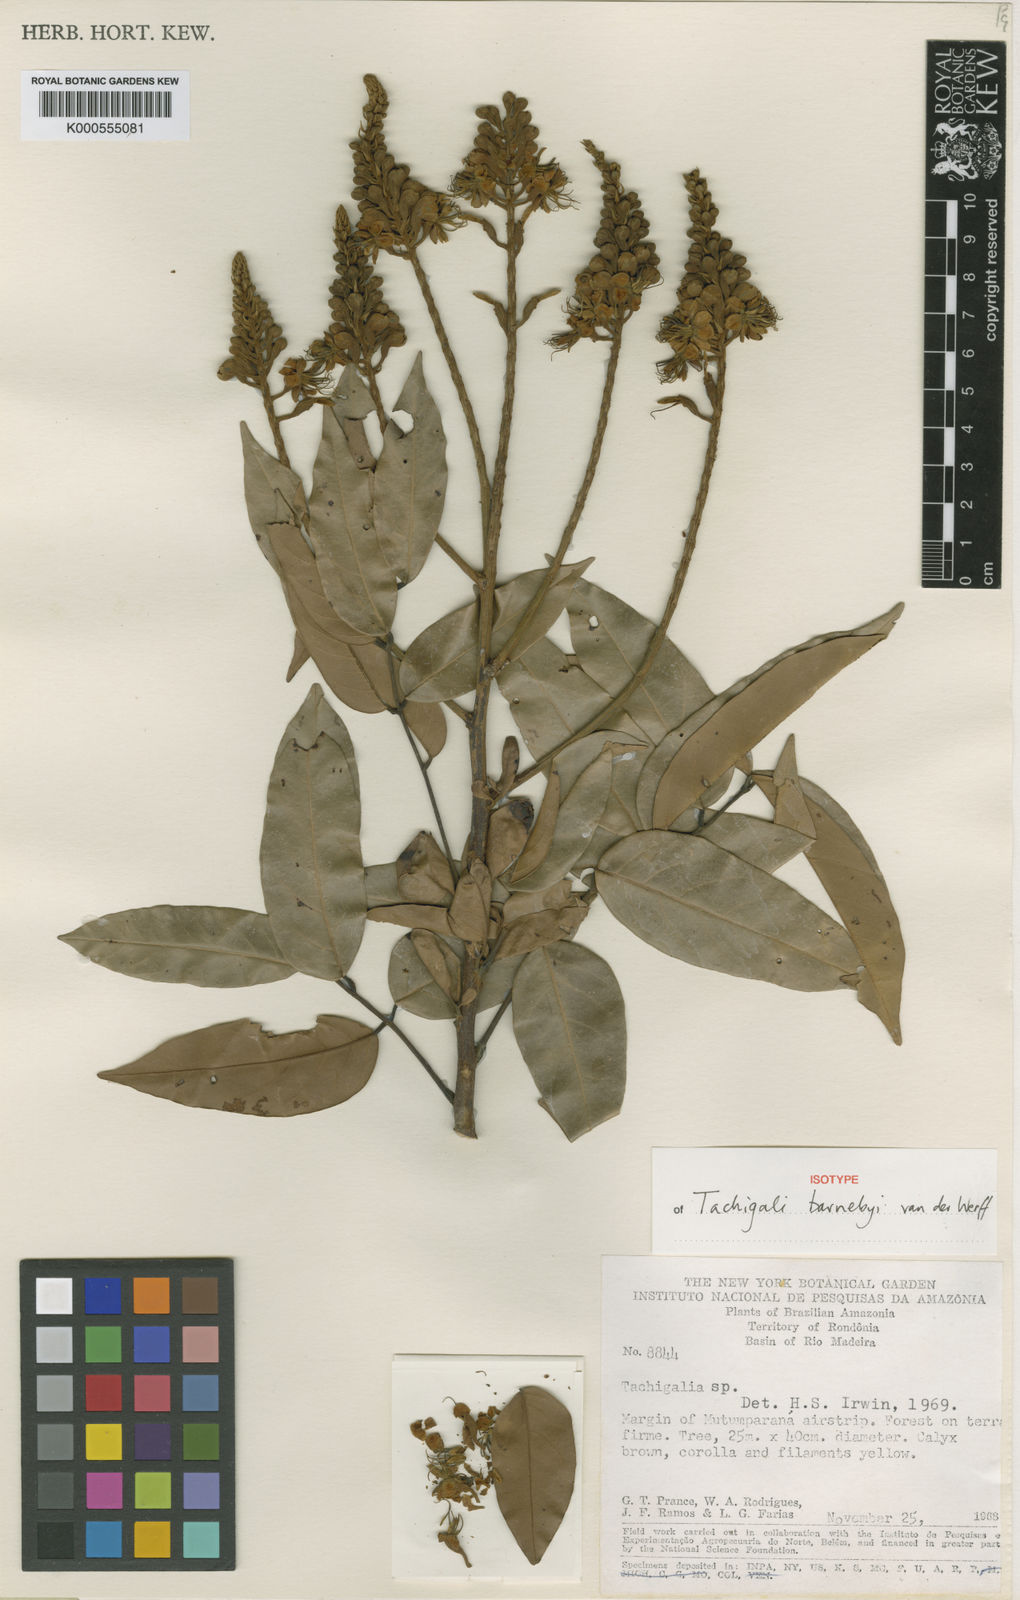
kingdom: Plantae
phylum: Tracheophyta
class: Magnoliopsida
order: Fabales
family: Fabaceae
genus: Tachigali
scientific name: Tachigali barnebyi
